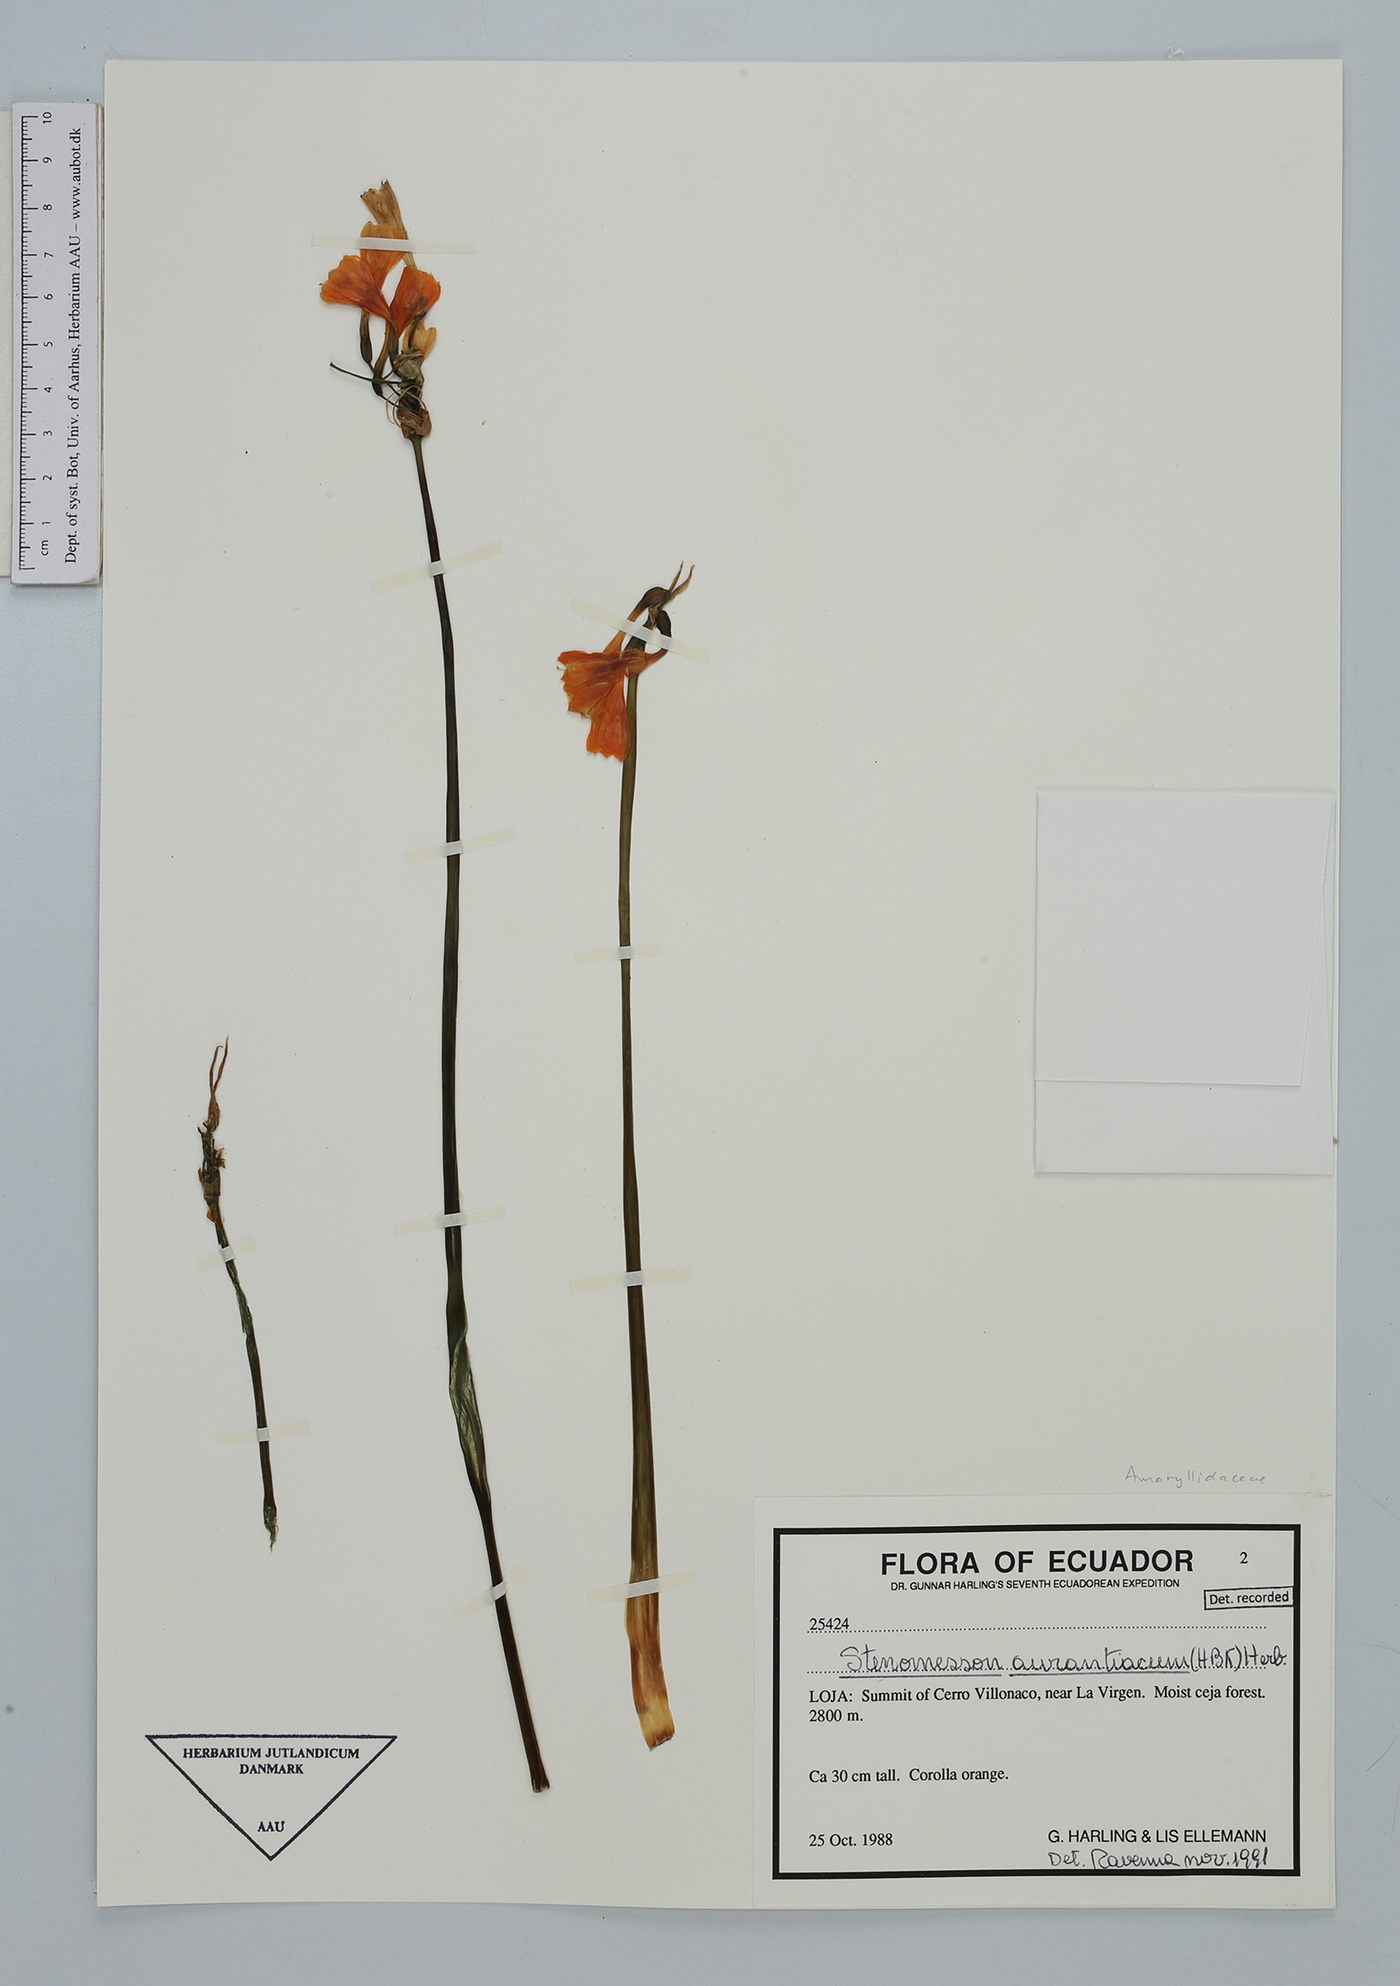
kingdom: Plantae
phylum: Tracheophyta
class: Liliopsida
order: Asparagales
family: Amaryllidaceae
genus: Stenomesson
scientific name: Stenomesson aurantiacum
